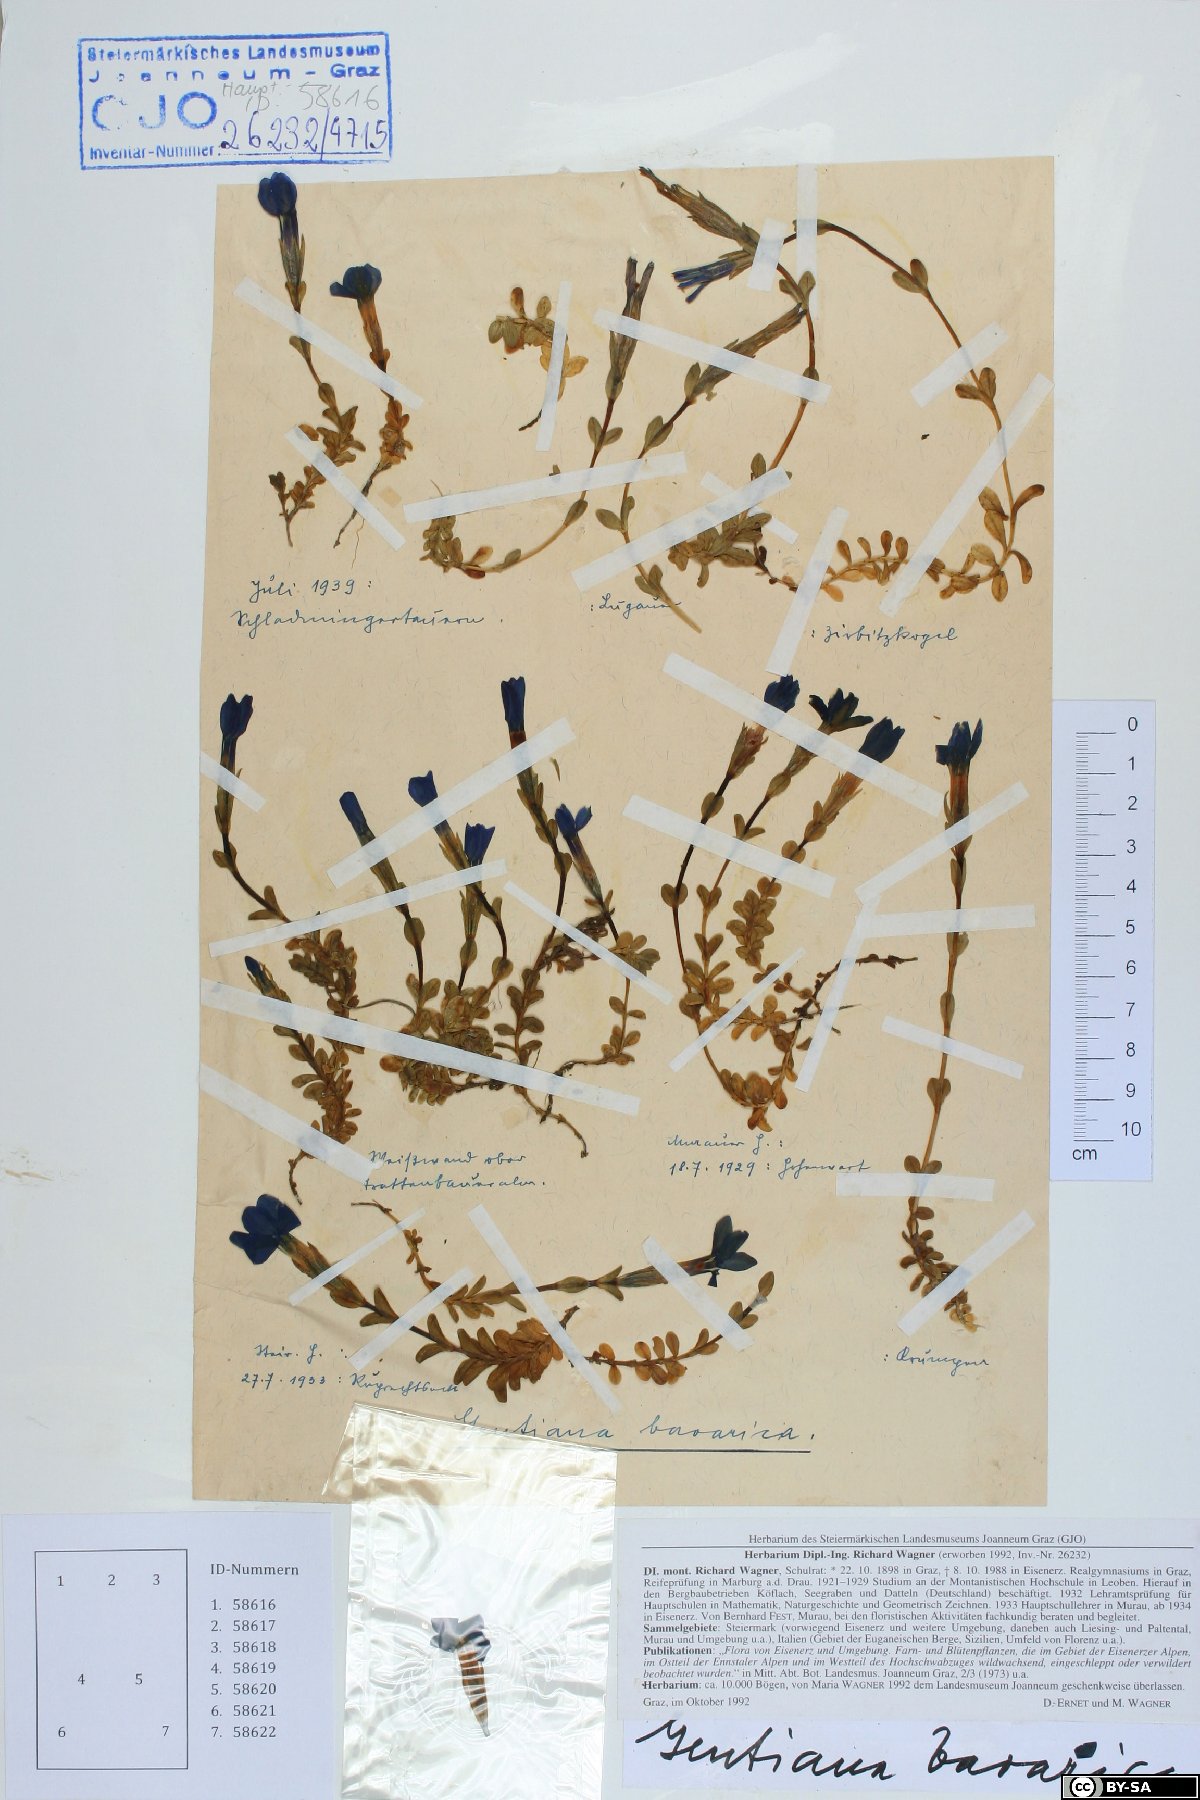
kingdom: Plantae
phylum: Tracheophyta
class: Magnoliopsida
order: Gentianales
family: Gentianaceae
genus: Gentiana
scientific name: Gentiana bavarica
